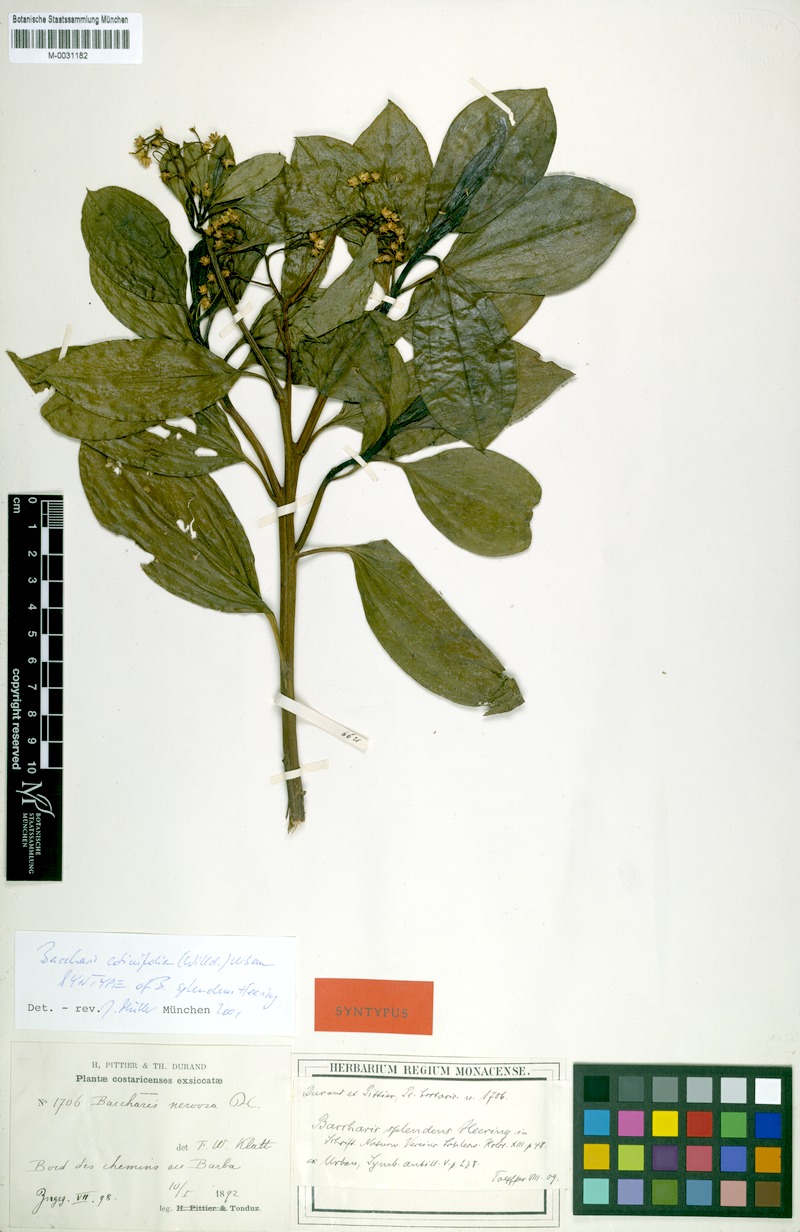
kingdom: Plantae
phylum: Tracheophyta
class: Magnoliopsida
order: Asterales
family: Asteraceae
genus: Baccharis
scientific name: Baccharis pedunculata
